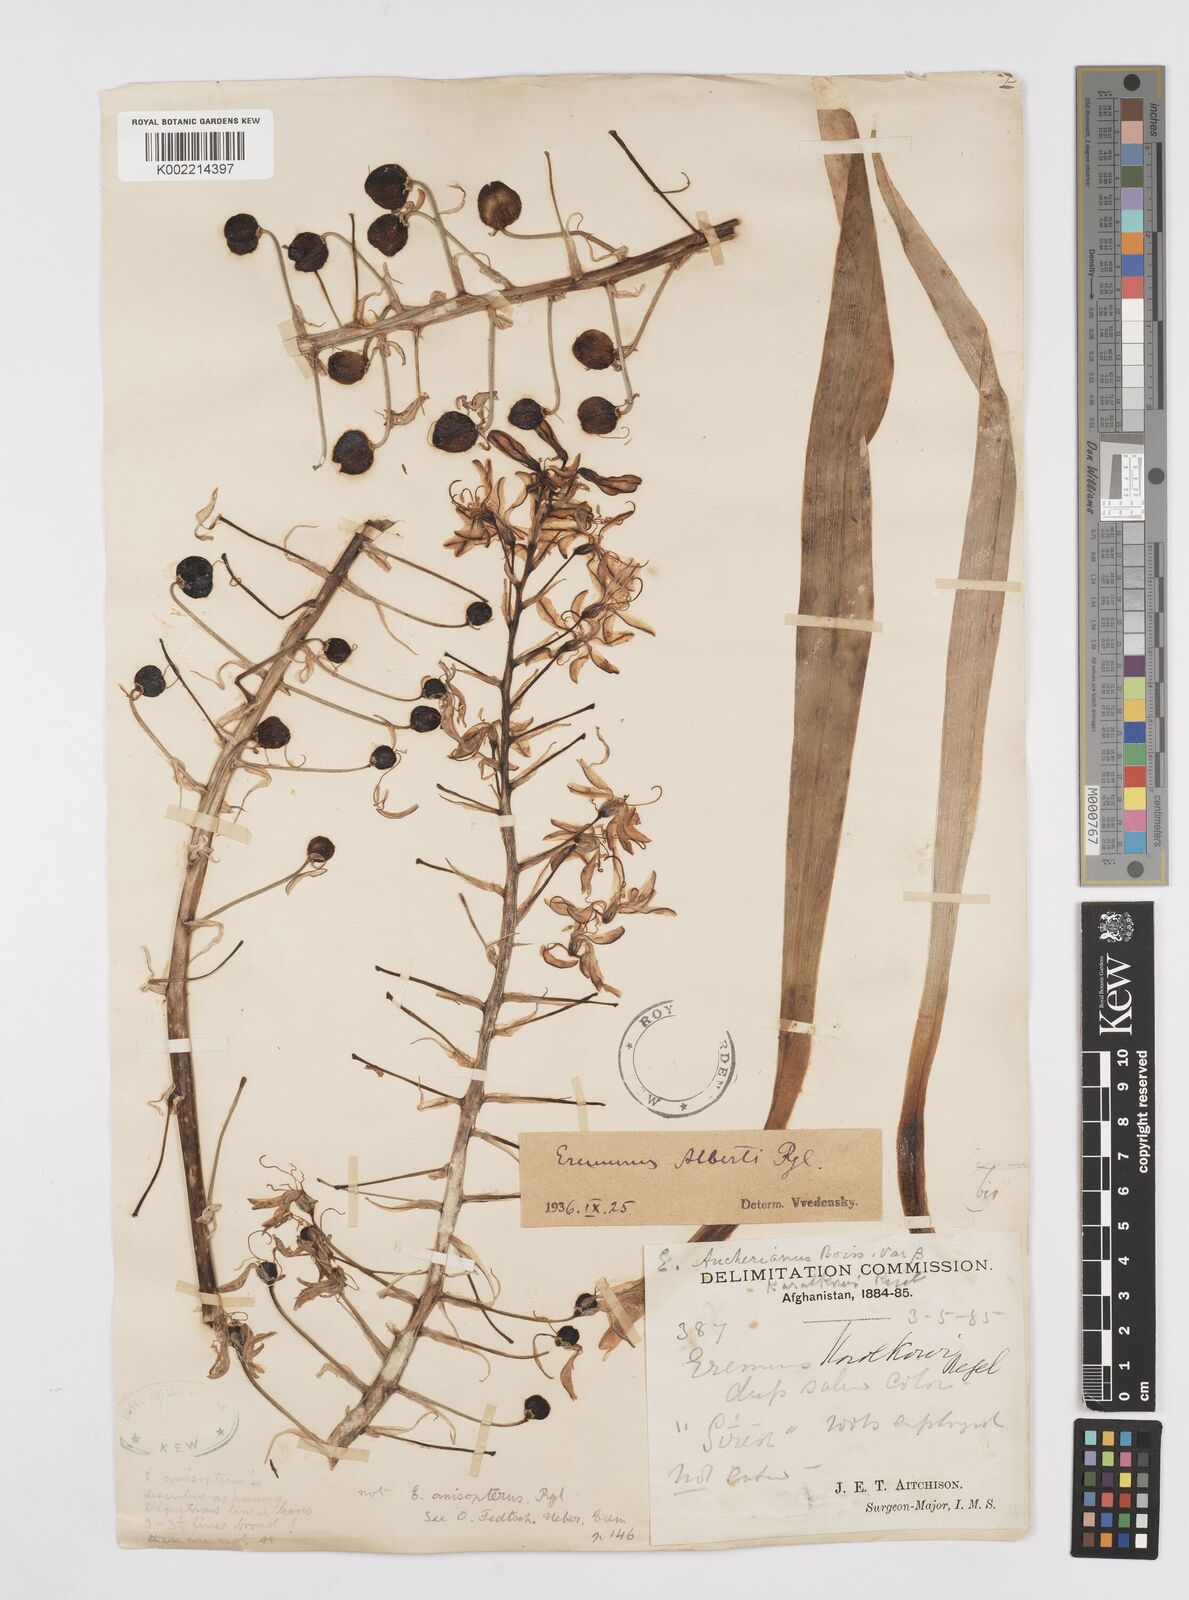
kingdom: Plantae
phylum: Tracheophyta
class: Liliopsida
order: Asparagales
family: Asphodelaceae
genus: Eremurus
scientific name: Eremurus alberti
